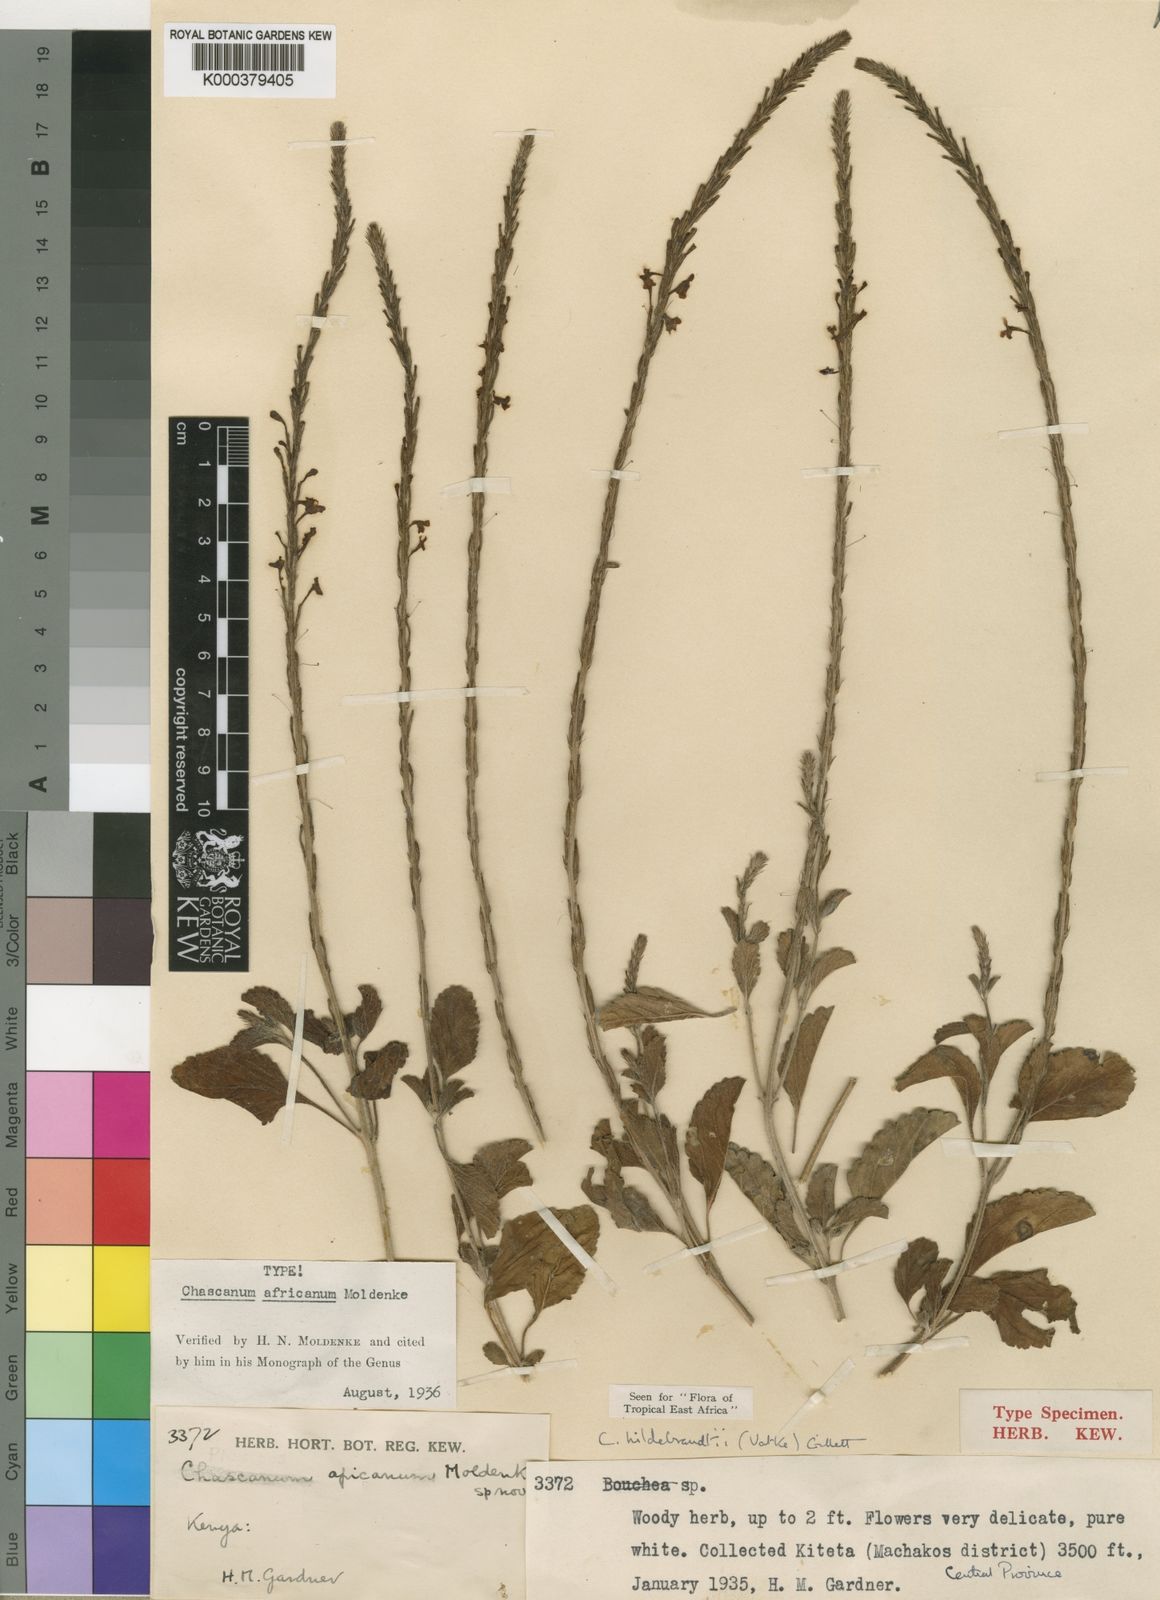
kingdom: Plantae
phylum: Tracheophyta
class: Magnoliopsida
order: Lamiales
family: Verbenaceae
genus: Chascanum
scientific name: Chascanum hildebrandtii
